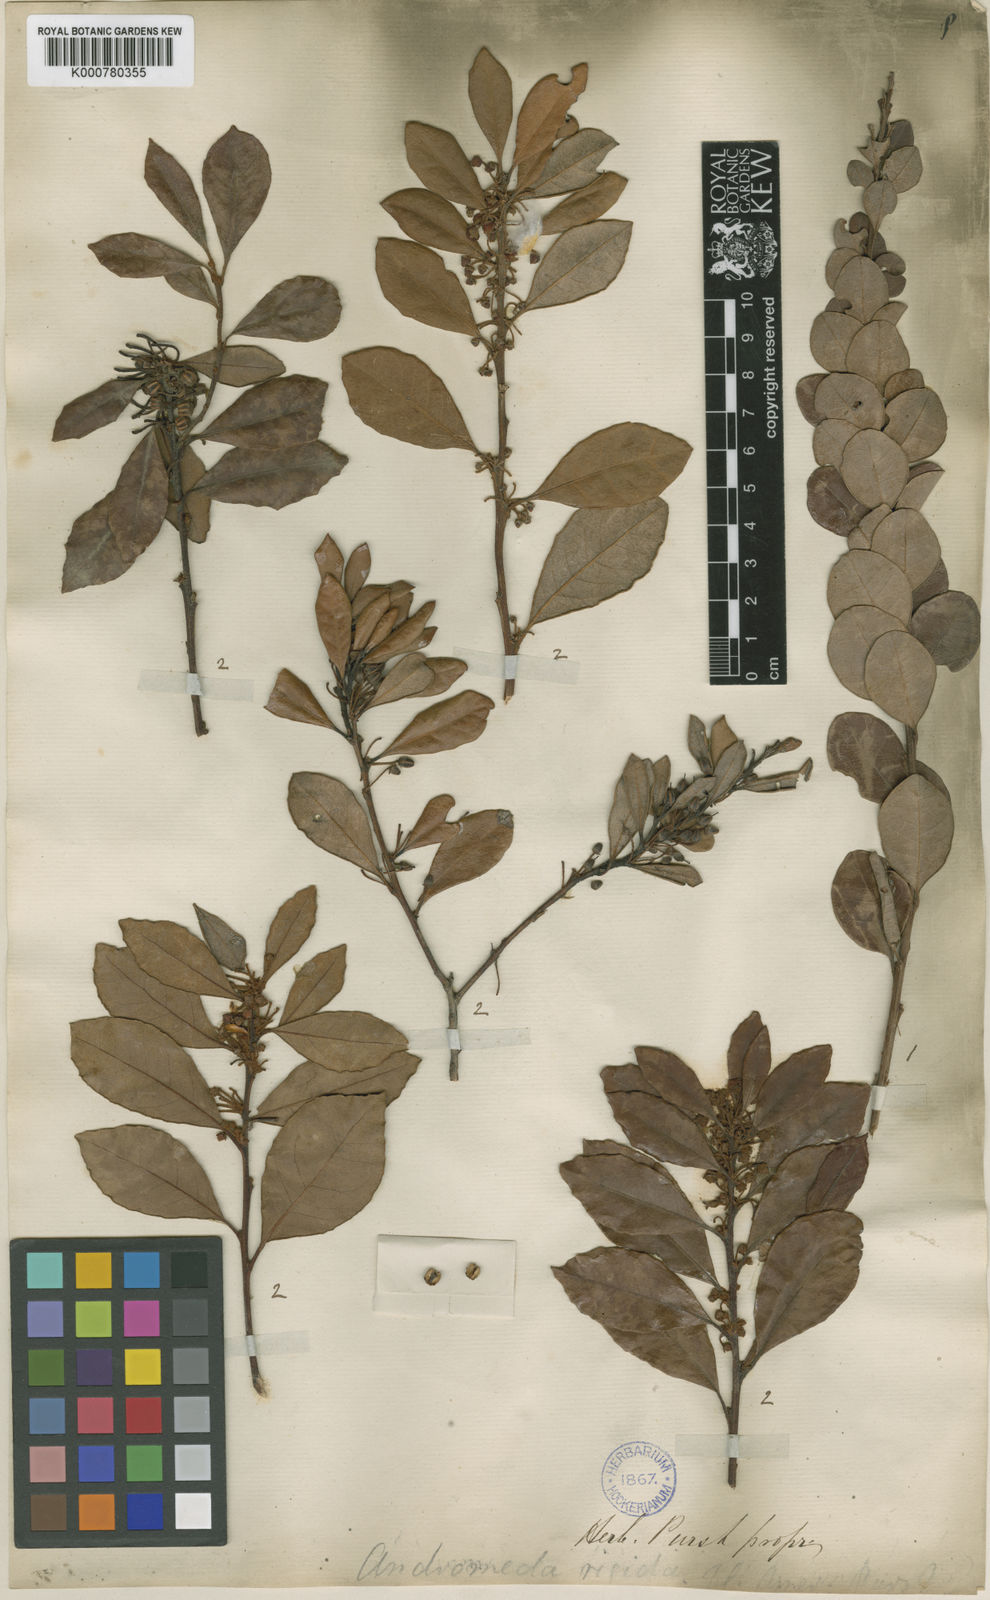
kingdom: Plantae
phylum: Tracheophyta
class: Magnoliopsida
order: Ericales
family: Ericaceae
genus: Lyonia
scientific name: Lyonia ferruginea
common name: Rusty lyonia
